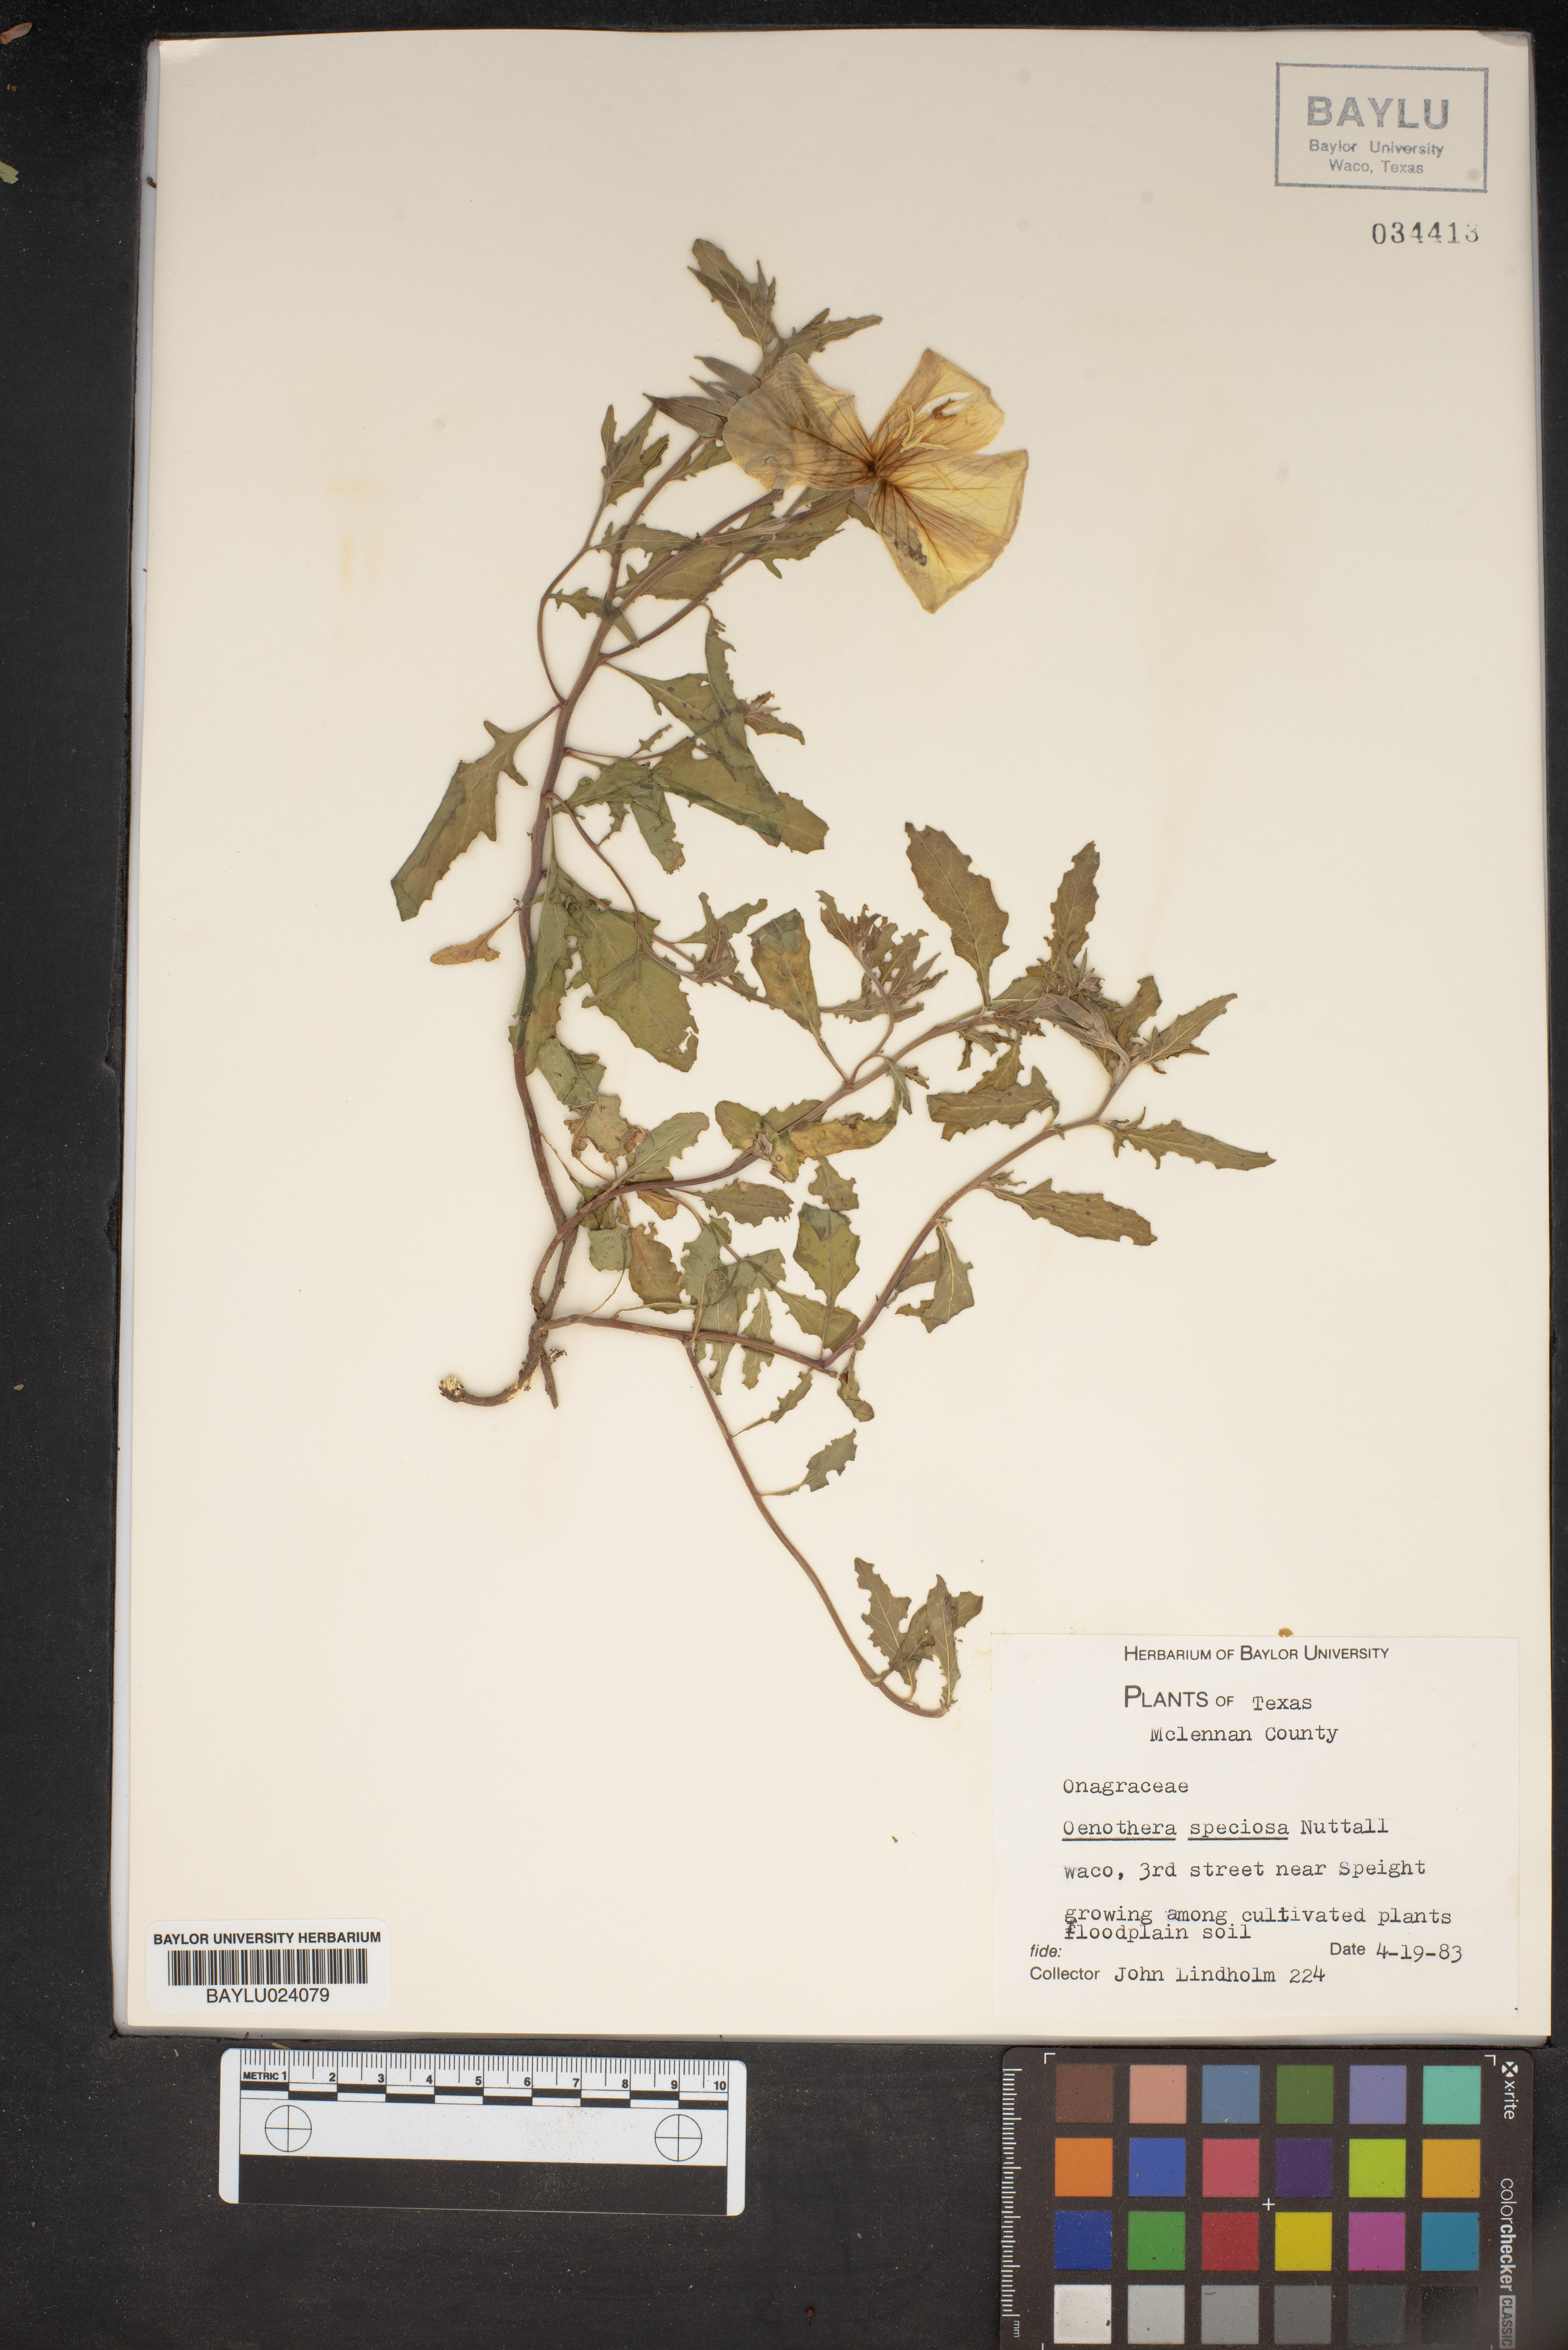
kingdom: Plantae
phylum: Tracheophyta
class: Magnoliopsida
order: Myrtales
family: Onagraceae
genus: Oenothera
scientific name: Oenothera speciosa
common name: White evening-primrose
